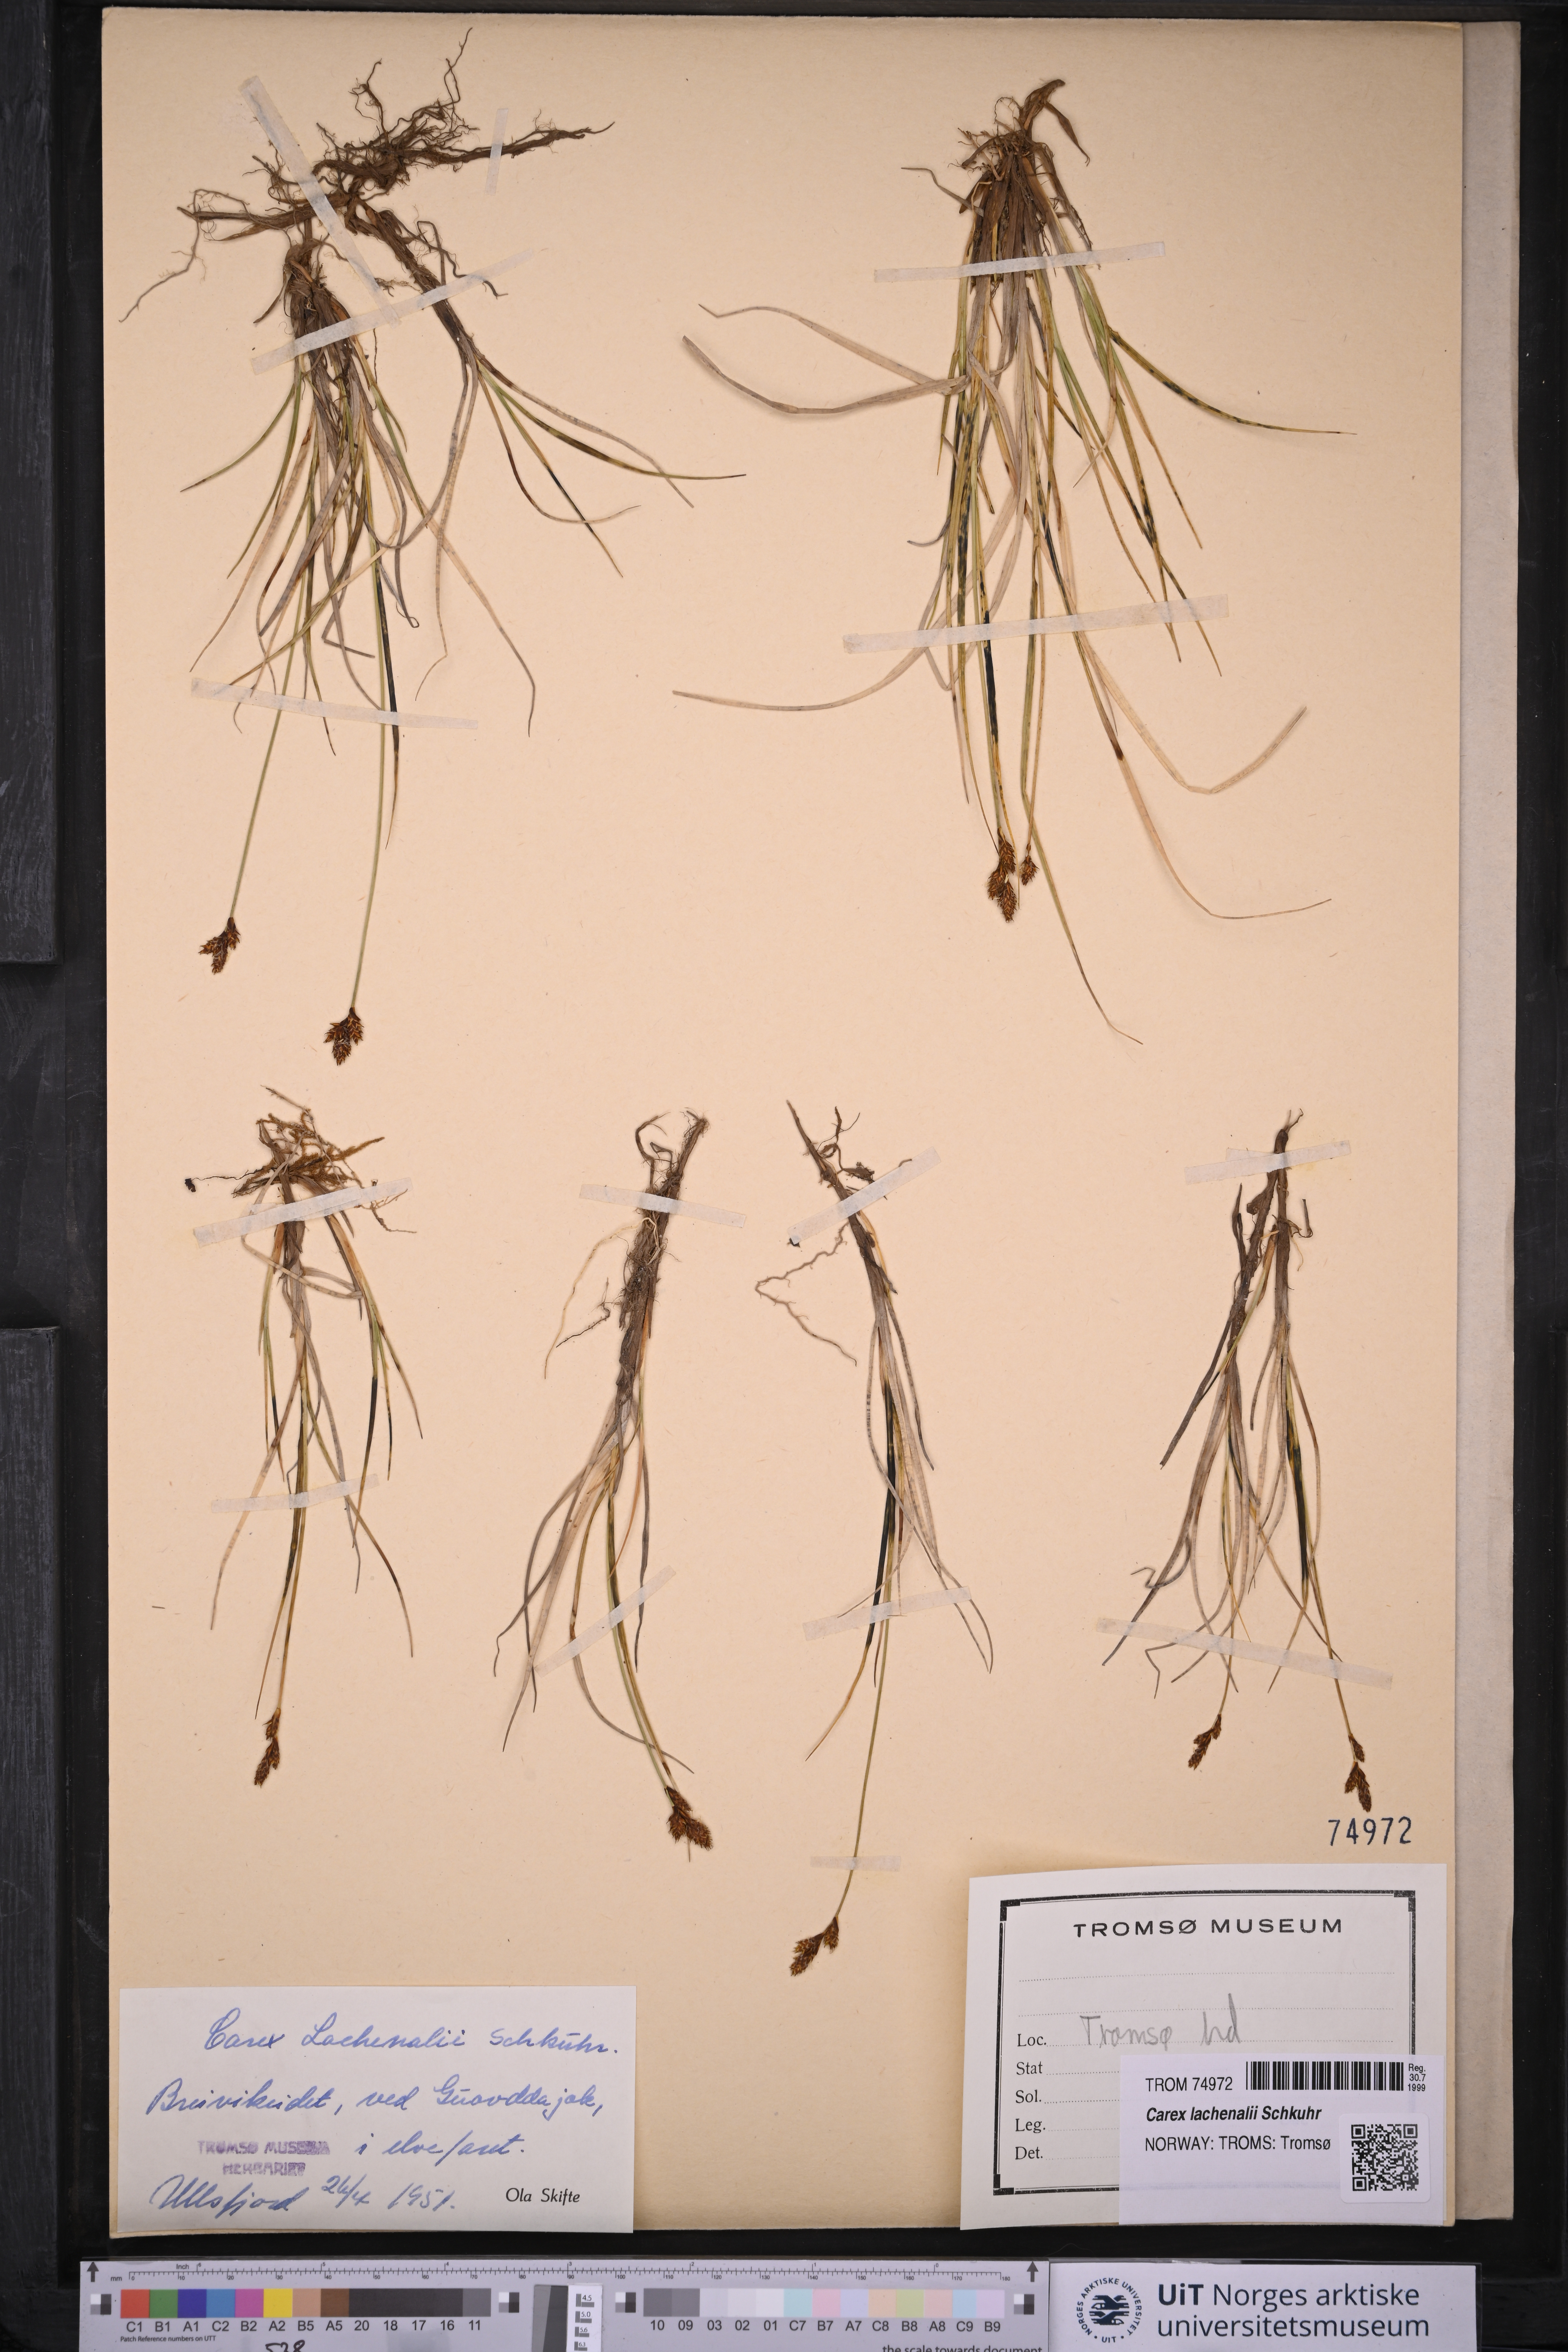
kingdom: Plantae
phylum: Tracheophyta
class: Liliopsida
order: Poales
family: Cyperaceae
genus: Carex
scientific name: Carex lachenalii
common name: Hare's-foot sedge
